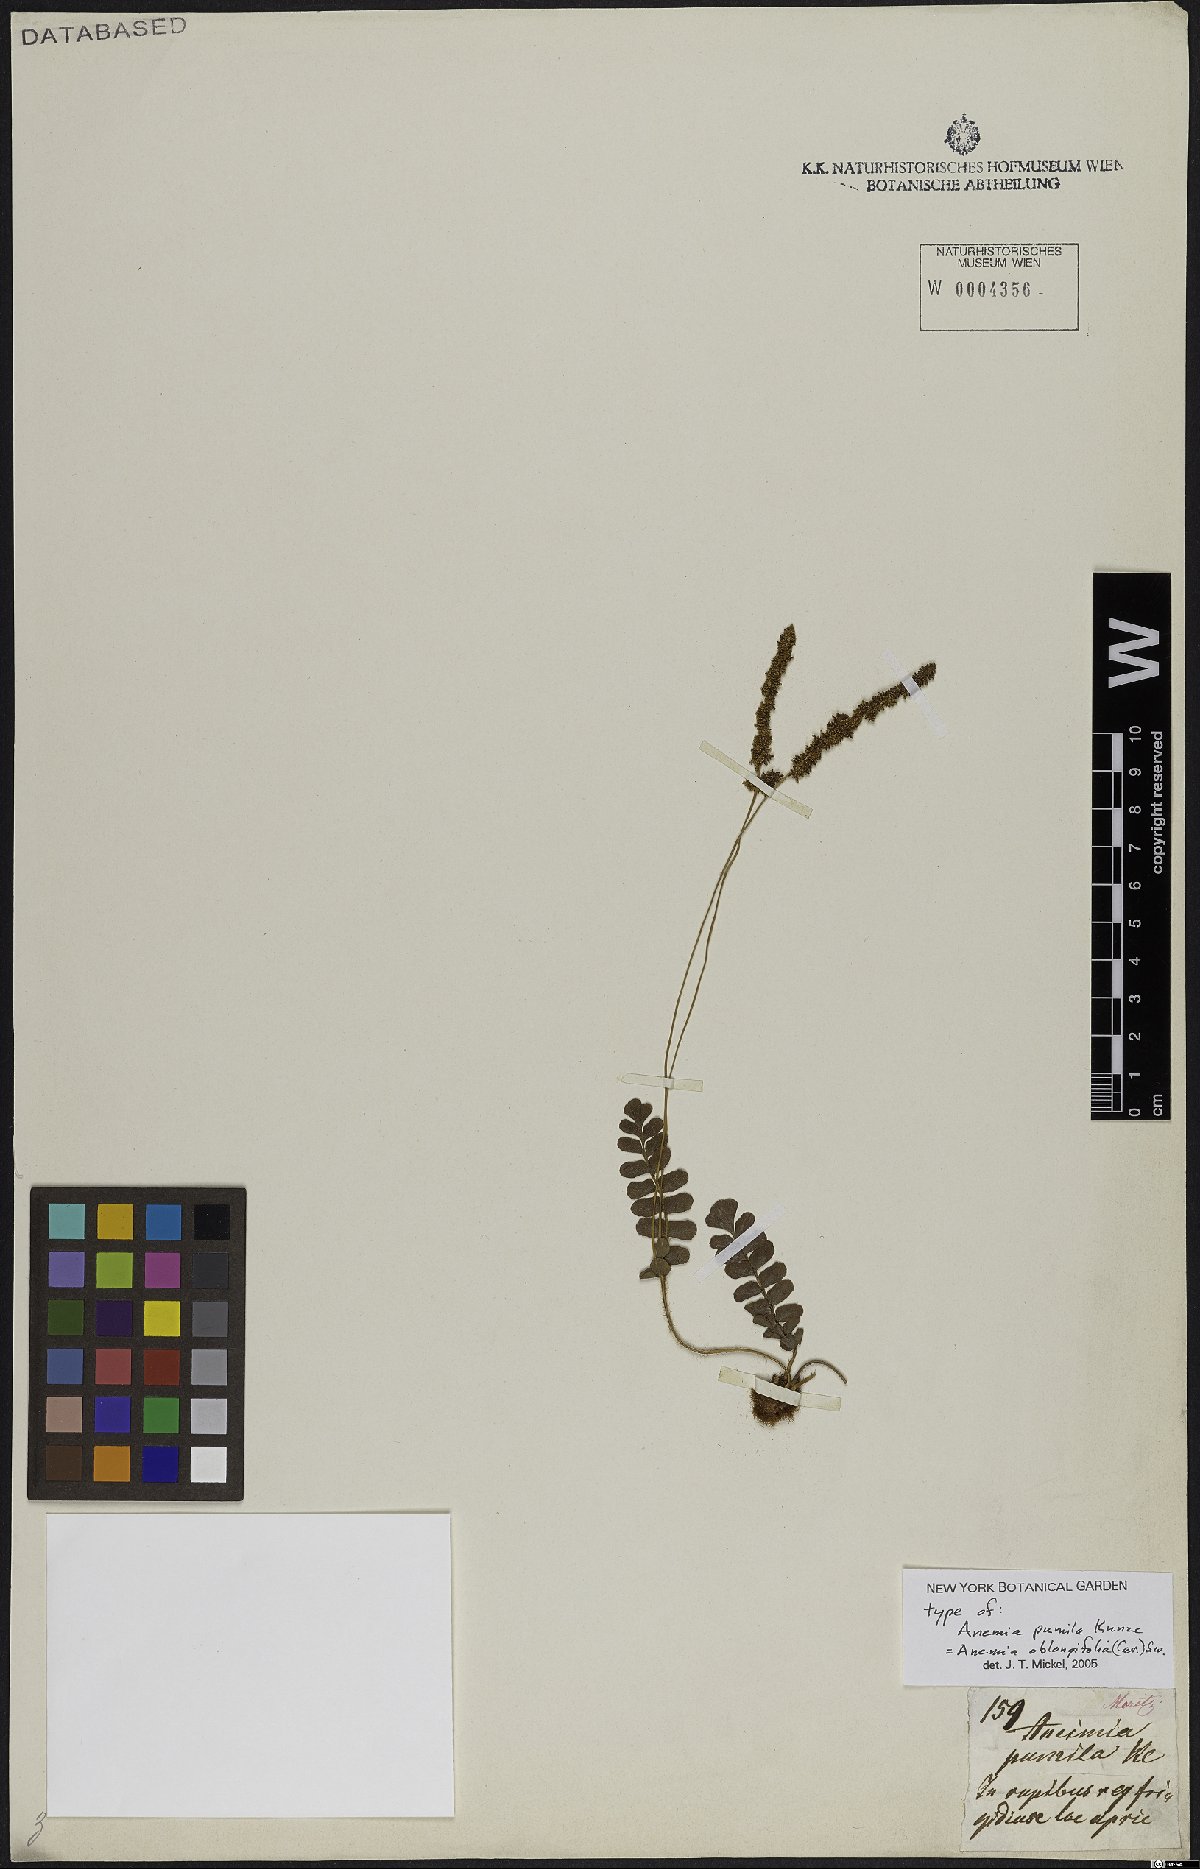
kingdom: Plantae
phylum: Tracheophyta
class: Polypodiopsida
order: Schizaeales
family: Anemiaceae
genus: Anemia
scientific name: Anemia oblongifolia
